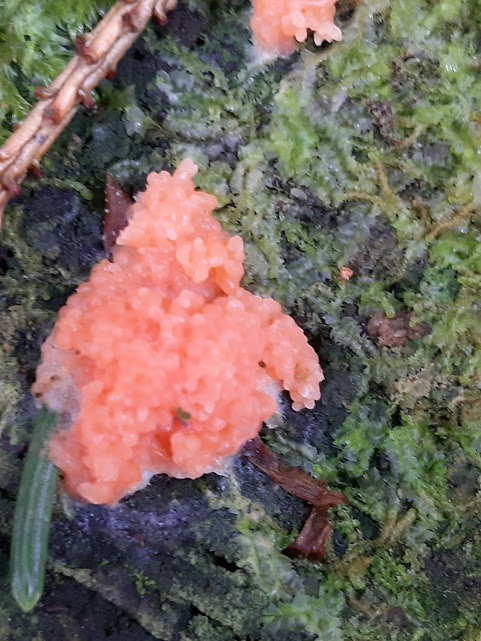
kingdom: Protozoa
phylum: Mycetozoa
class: Myxomycetes
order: Cribrariales
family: Tubiferaceae
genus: Tubifera
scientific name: Tubifera ferruginosa
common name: kanel-støvrør
